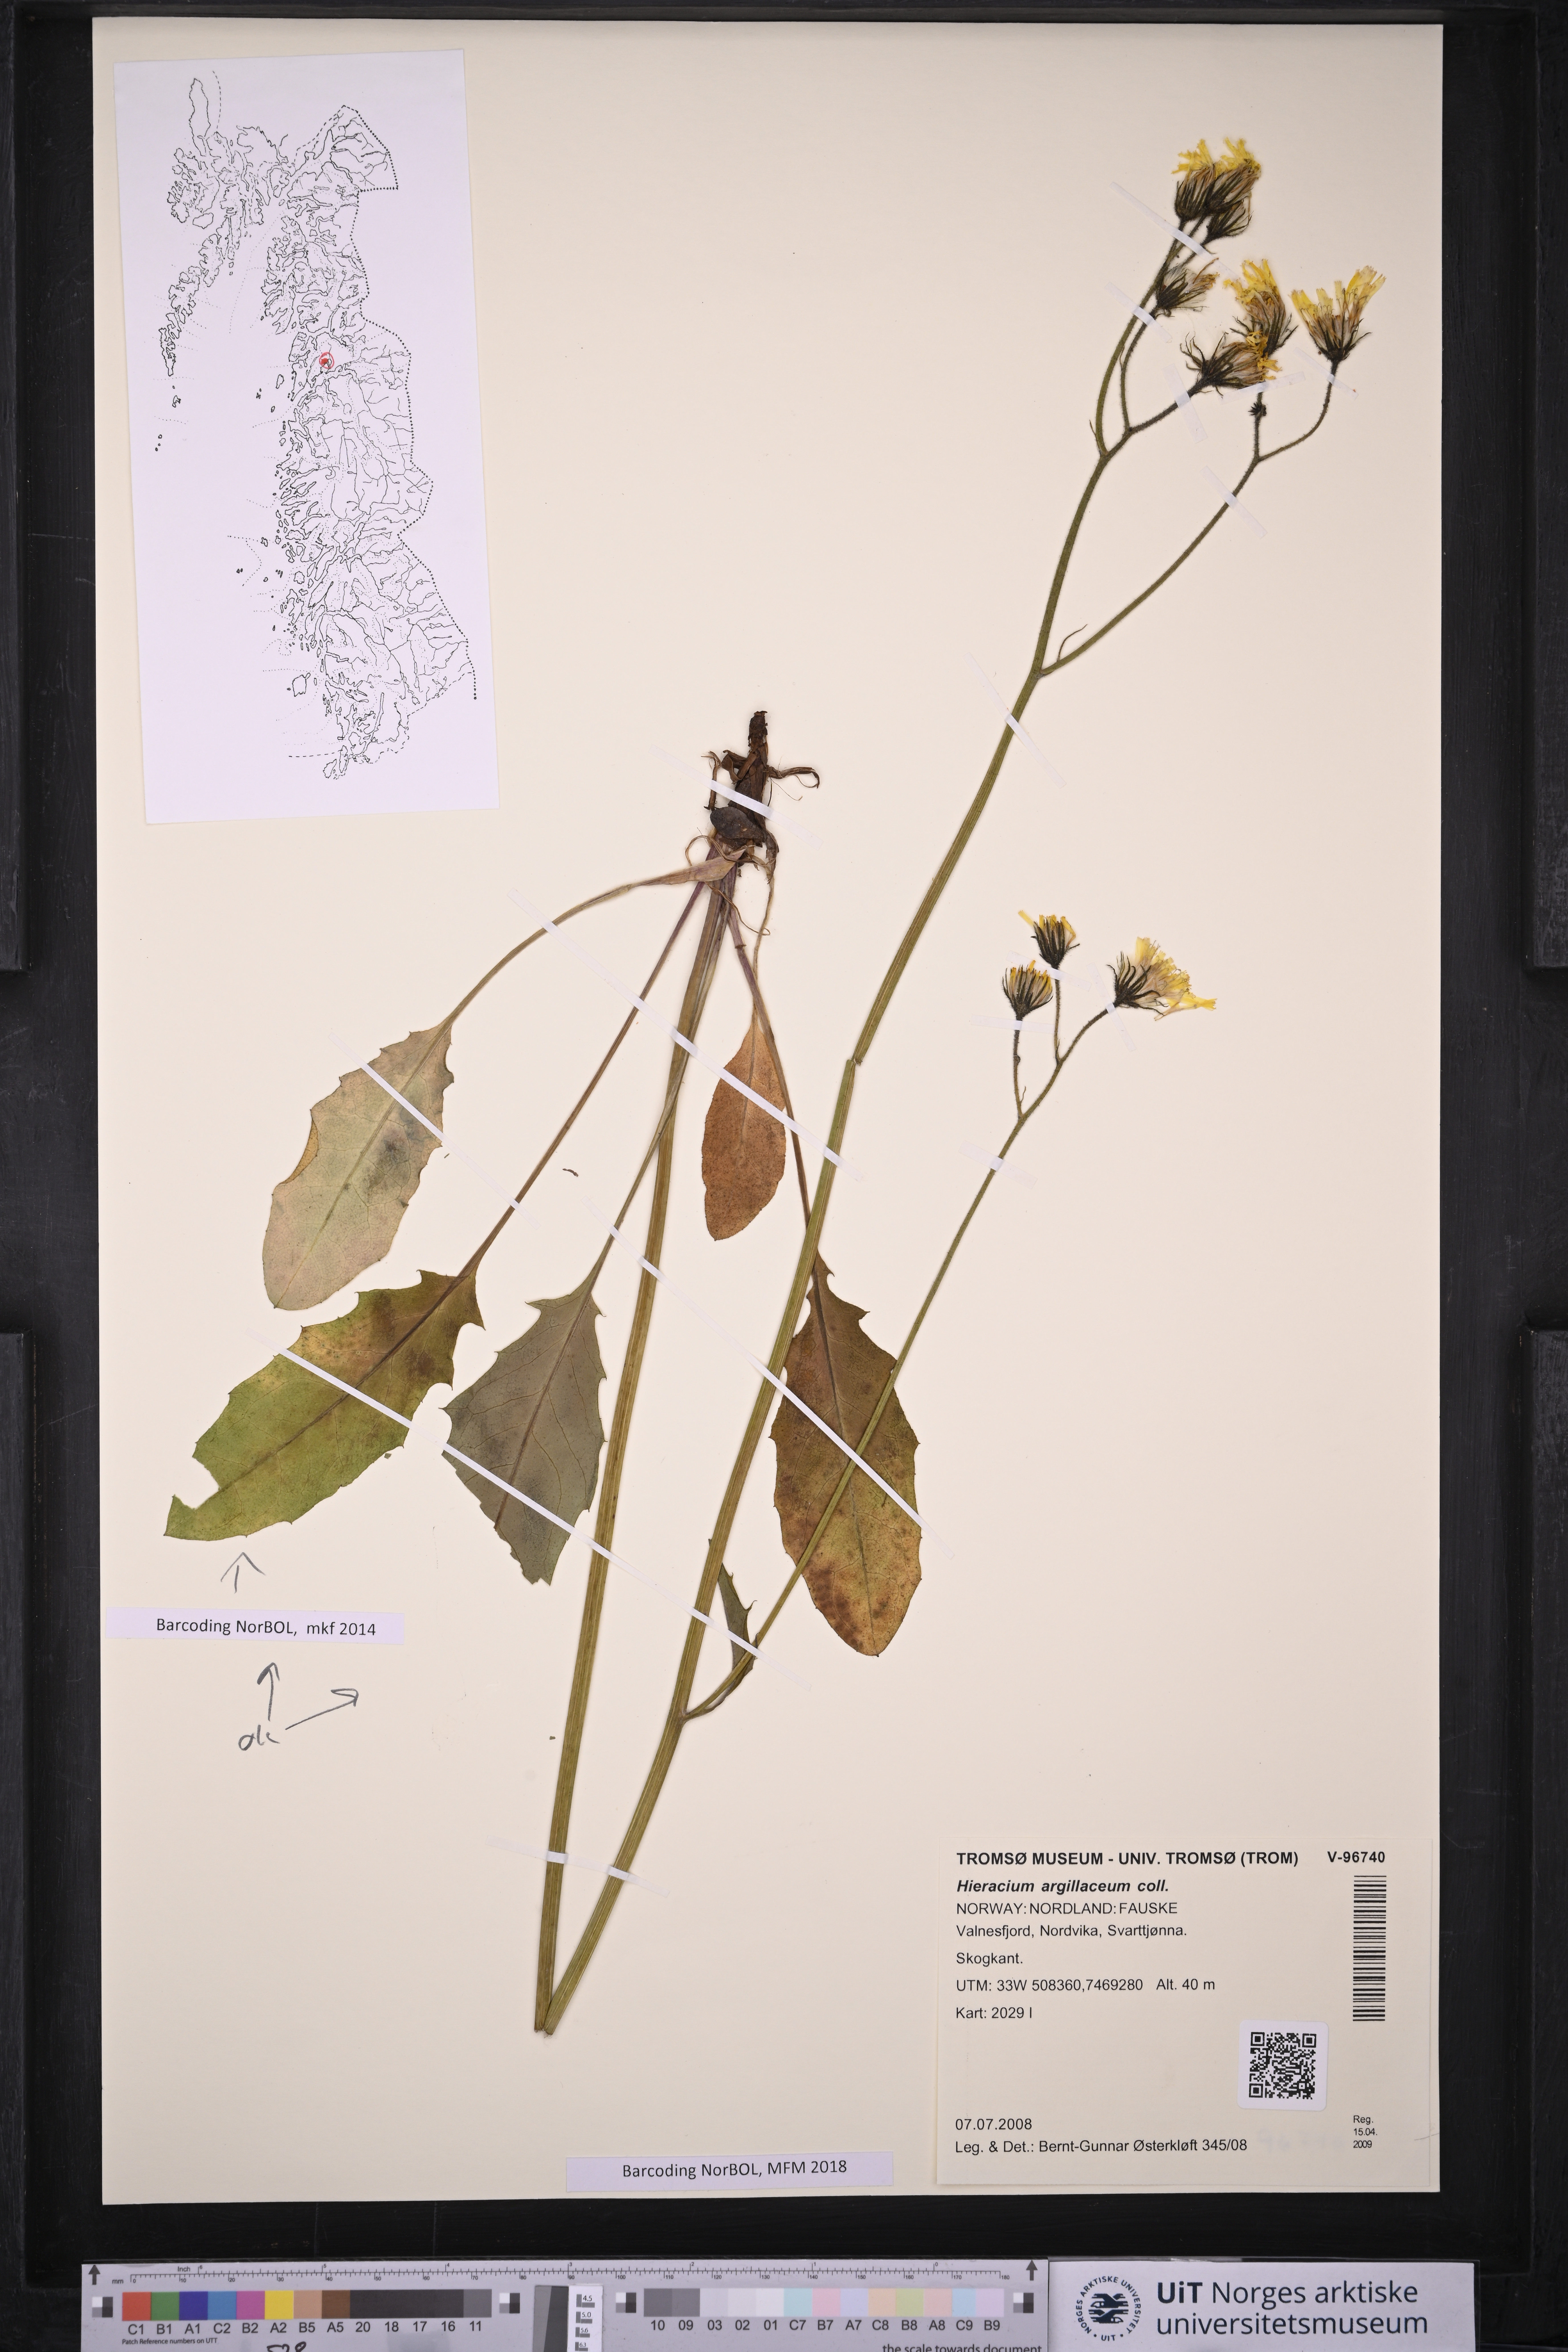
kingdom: Plantae
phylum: Tracheophyta
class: Magnoliopsida
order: Asterales
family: Asteraceae
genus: Hieracium
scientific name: Hieracium lachenalii
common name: Common hawkweed
